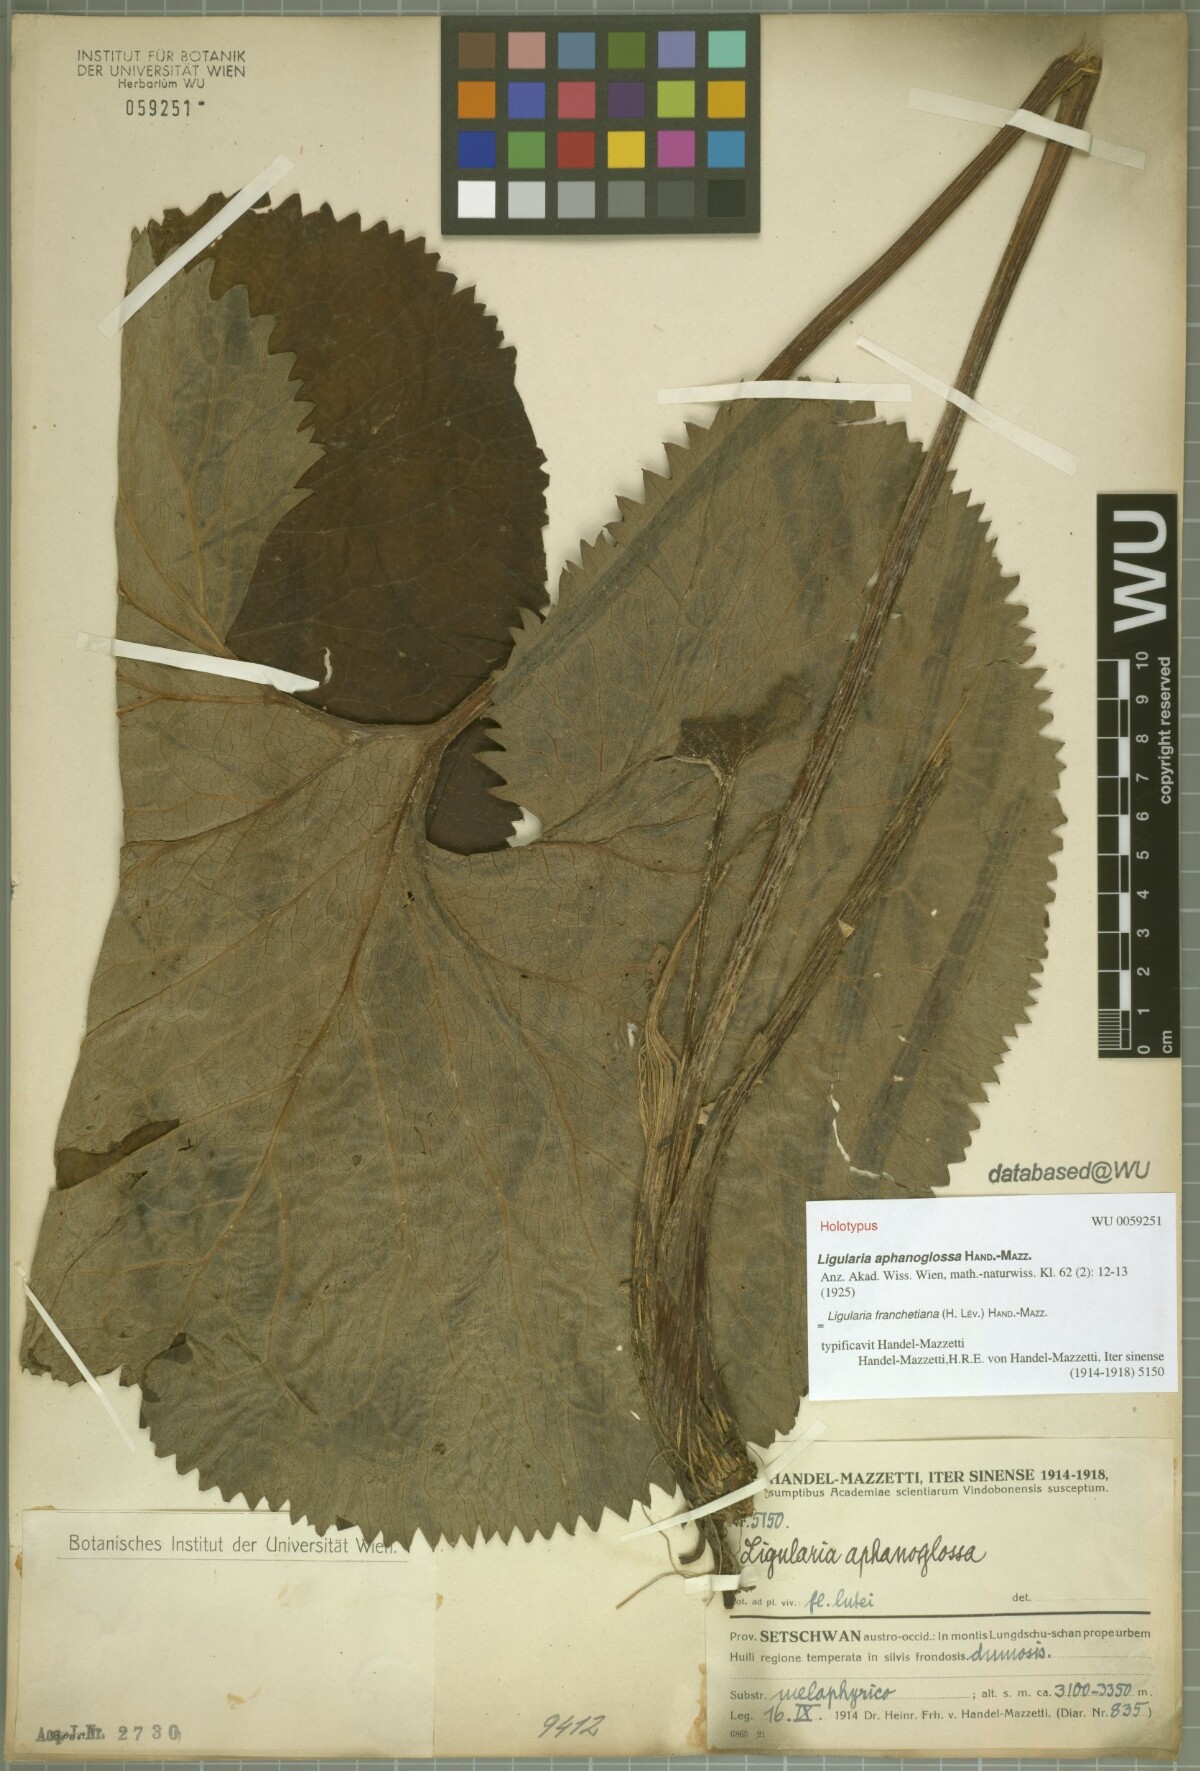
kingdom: Plantae
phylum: Tracheophyta
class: Magnoliopsida
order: Asterales
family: Asteraceae
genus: Ligularia
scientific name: Ligularia franchetiana
